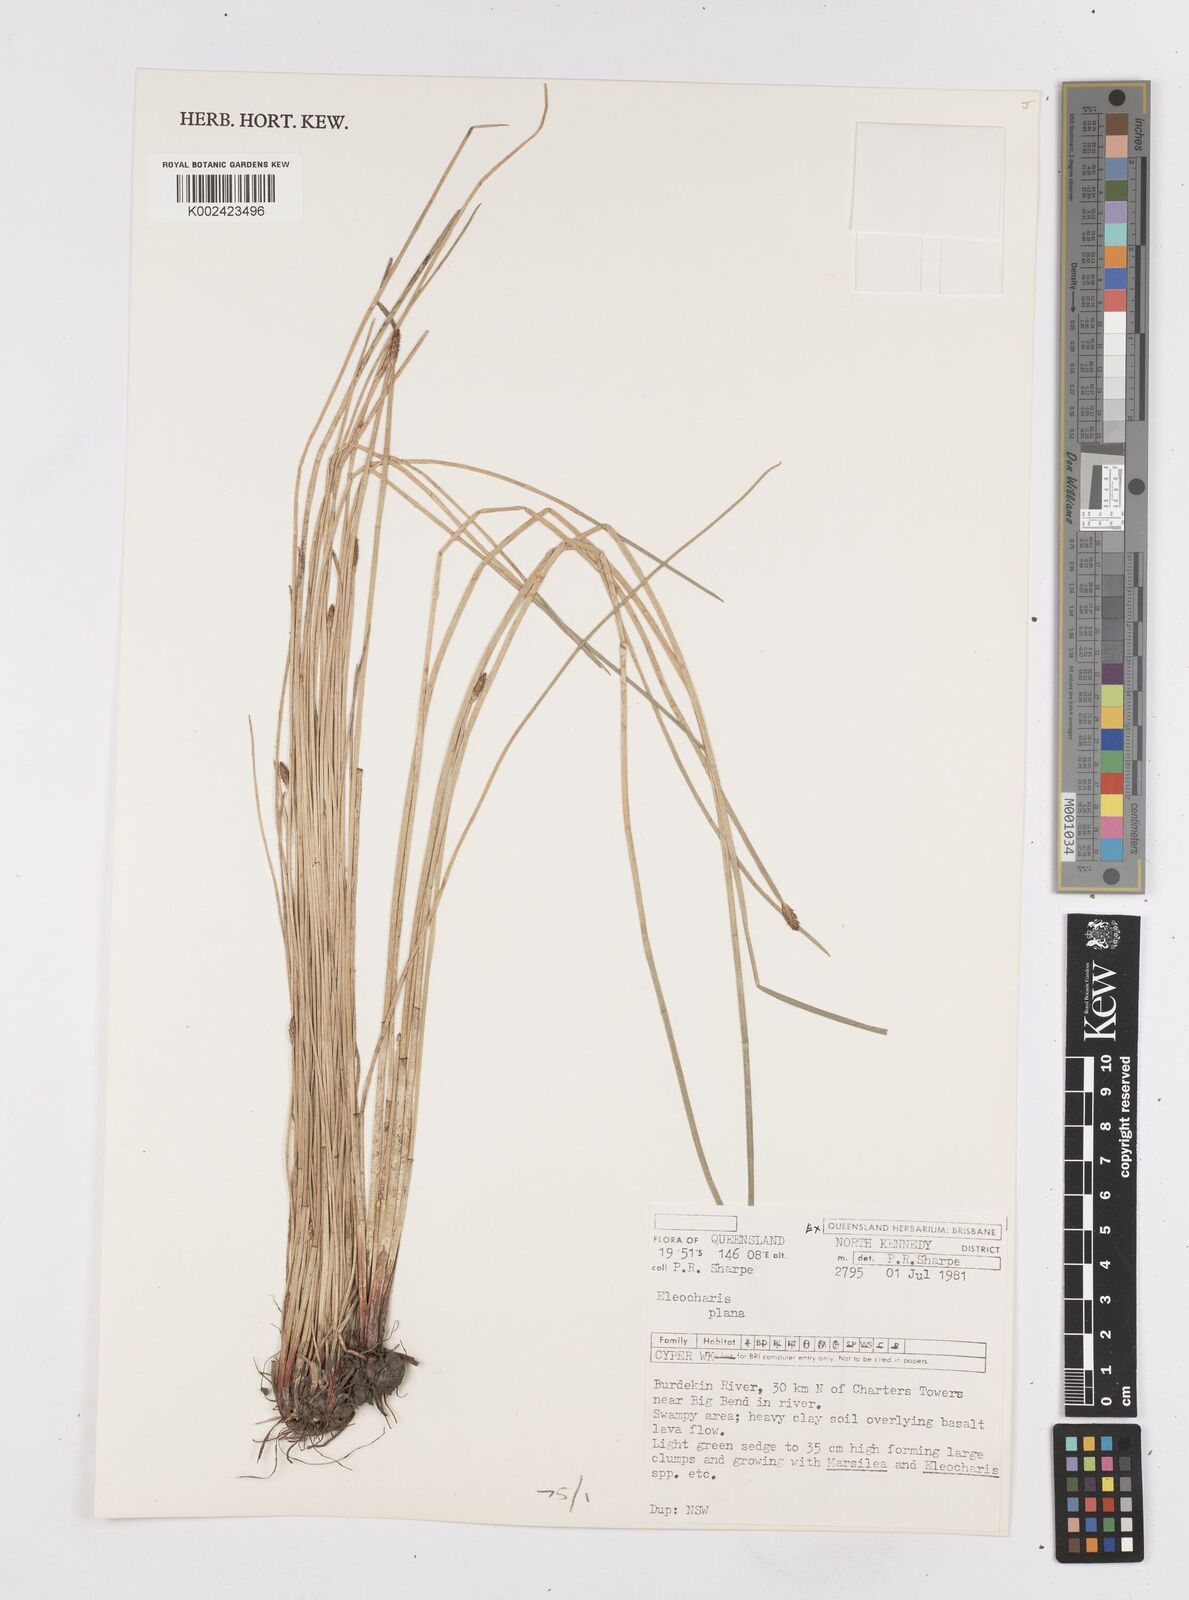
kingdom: Plantae
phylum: Tracheophyta
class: Liliopsida
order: Poales
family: Cyperaceae
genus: Eleocharis
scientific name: Eleocharis plana
